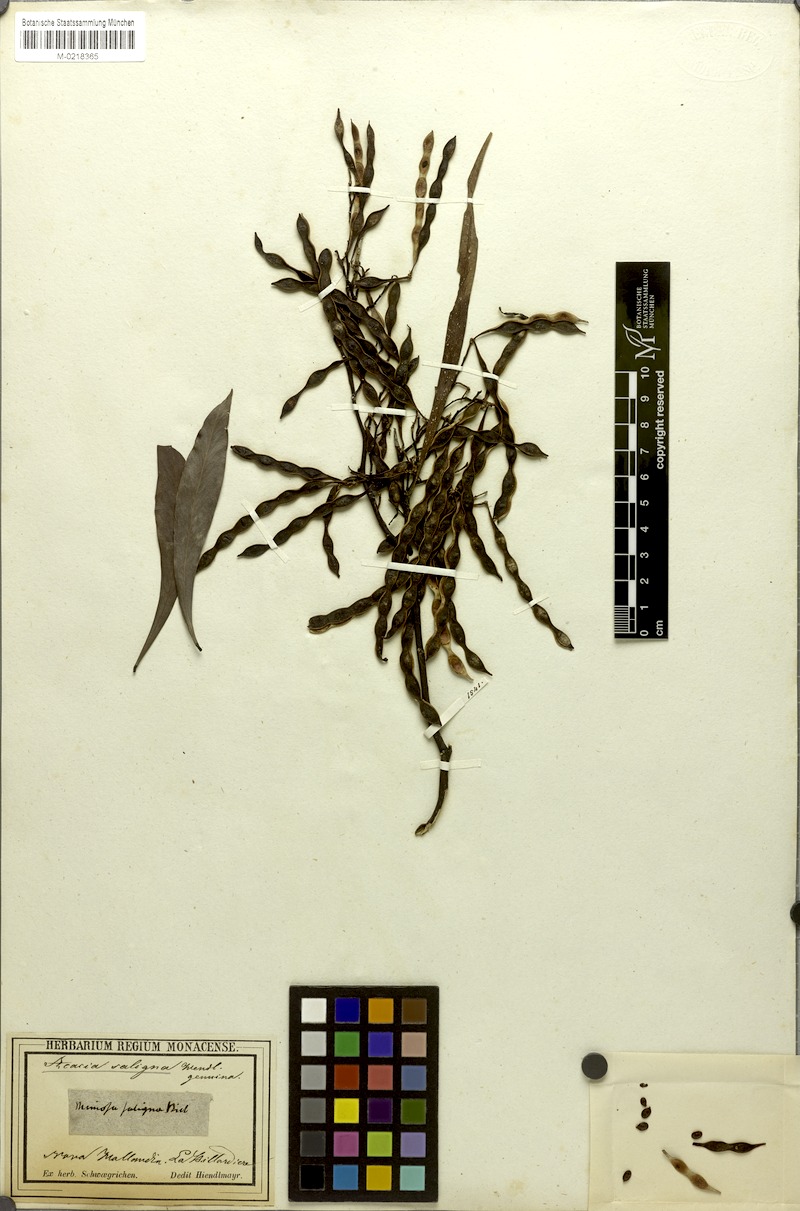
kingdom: Plantae
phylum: Tracheophyta
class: Magnoliopsida
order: Fabales
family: Fabaceae
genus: Acacia
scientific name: Acacia saligna
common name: Orange wattle
